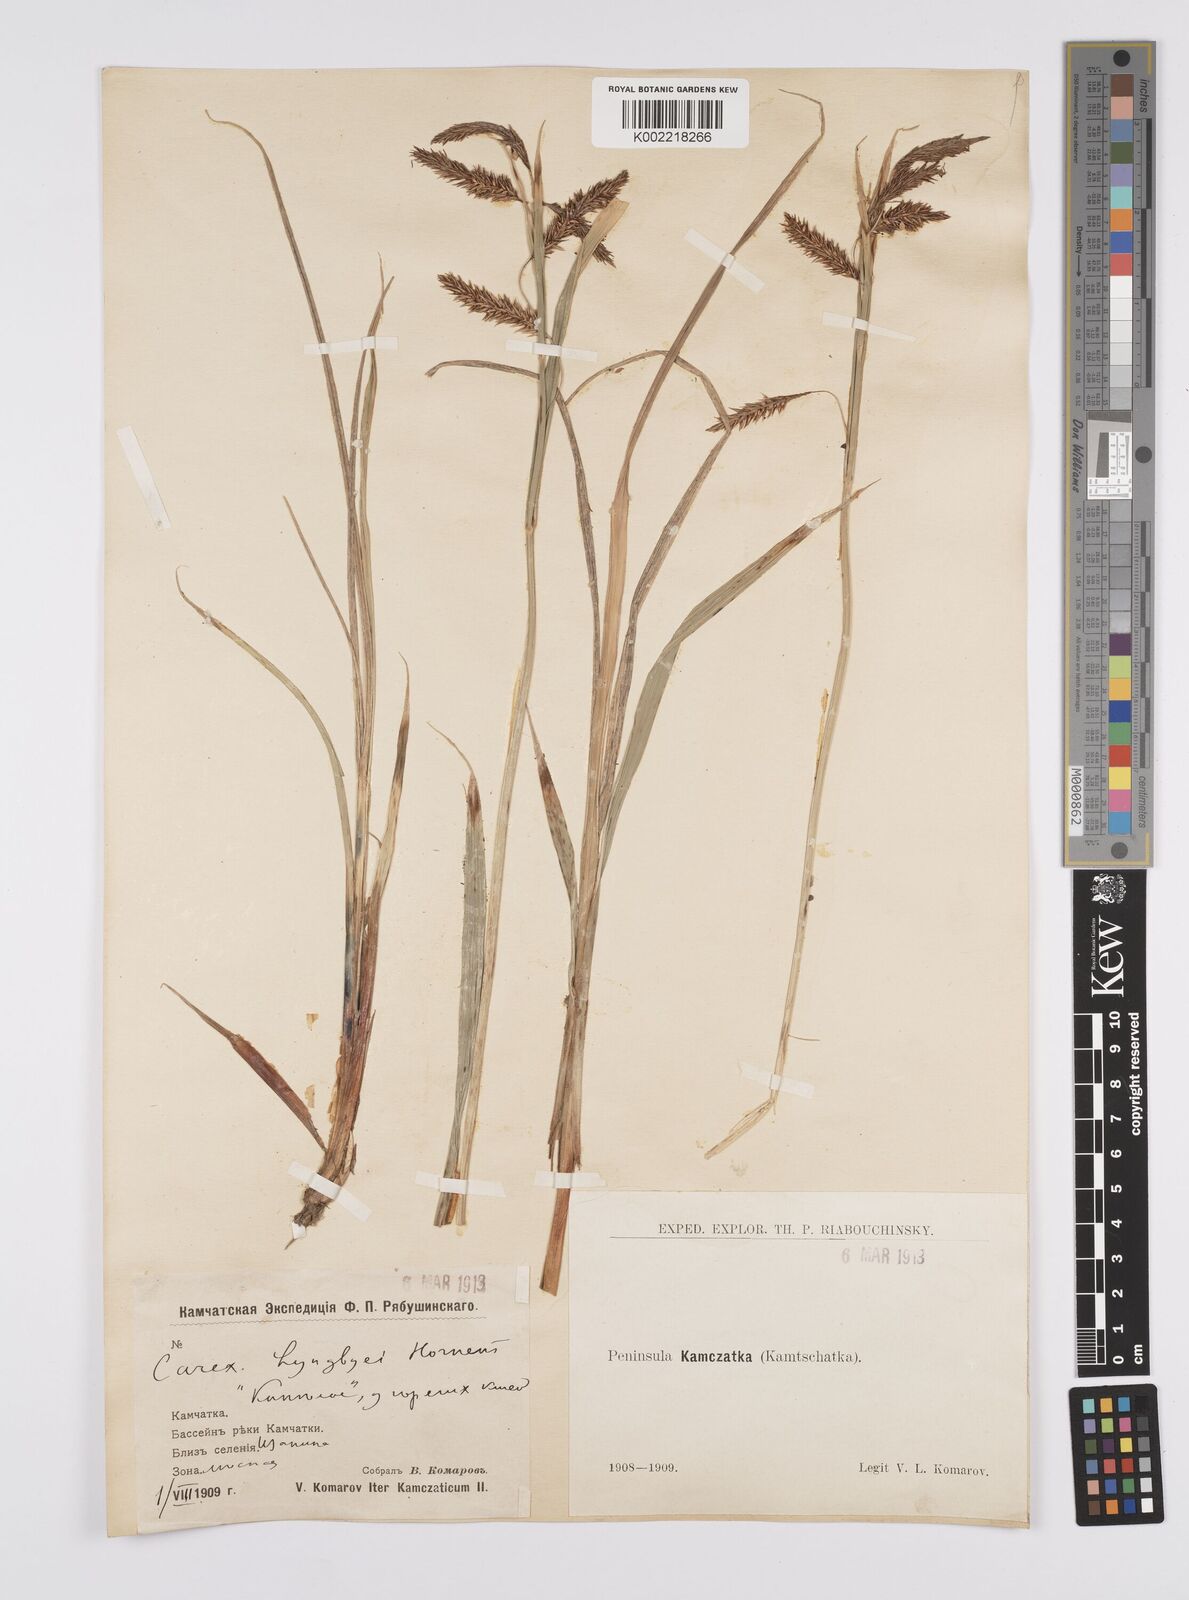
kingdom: Plantae
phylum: Tracheophyta
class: Liliopsida
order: Poales
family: Cyperaceae
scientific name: Cyperaceae
